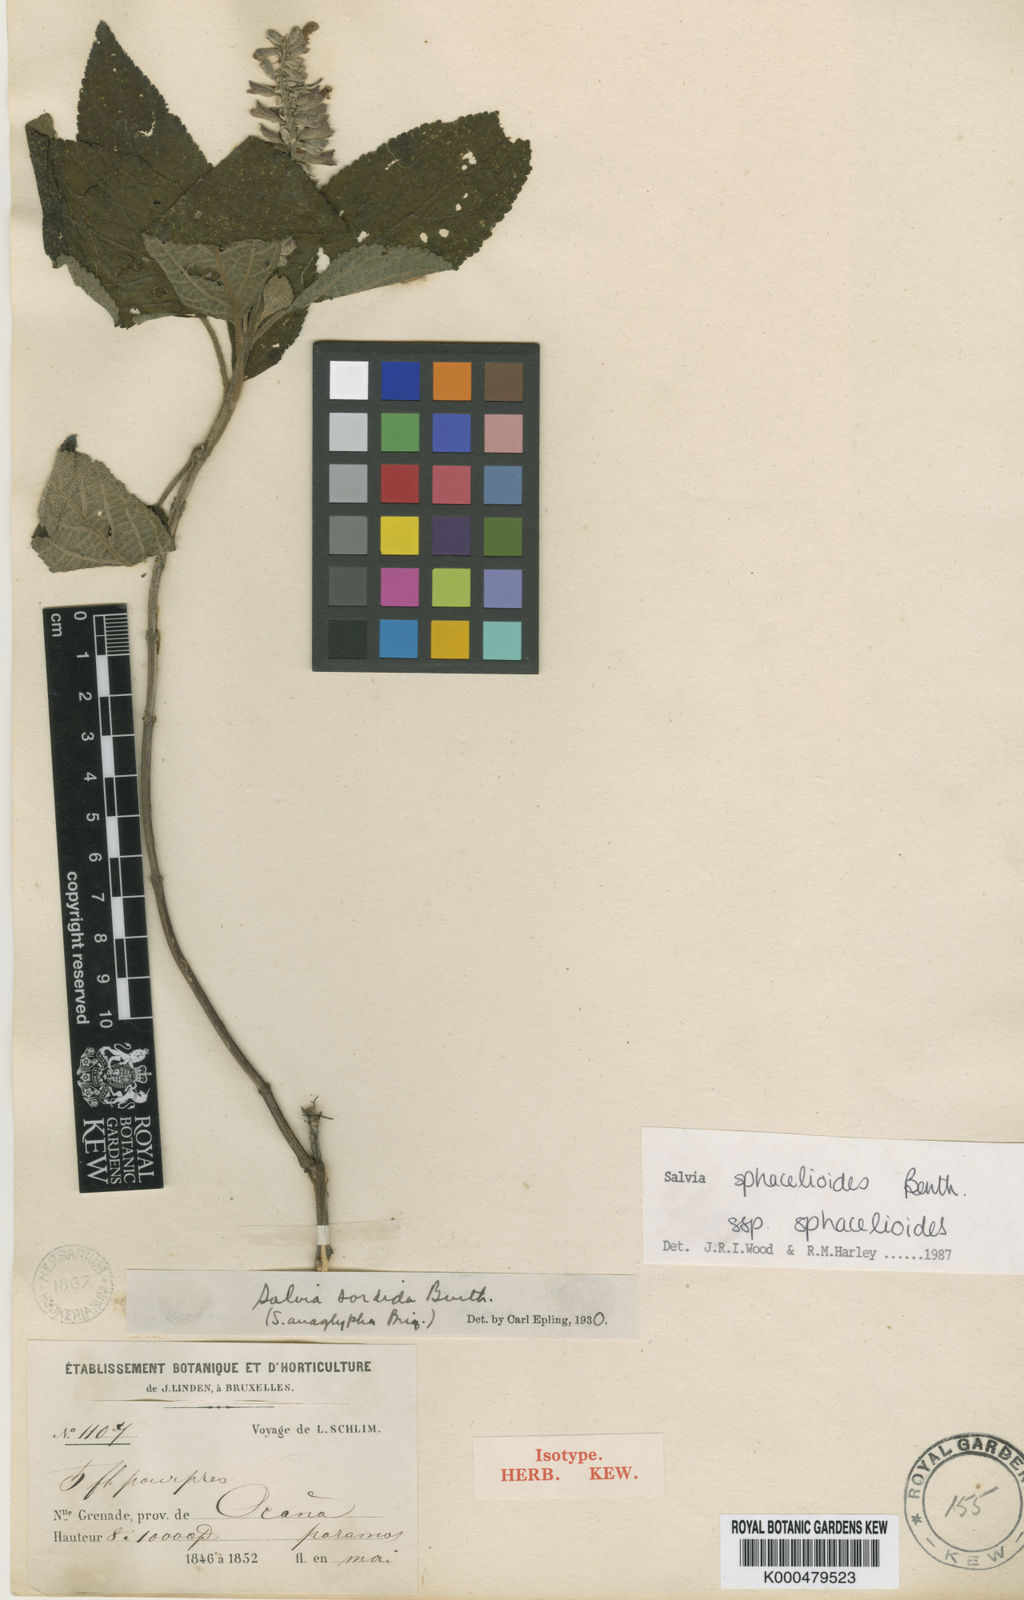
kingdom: Plantae
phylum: Tracheophyta
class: Magnoliopsida
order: Lamiales
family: Lamiaceae
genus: Salvia
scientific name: Salvia sphacelioides
